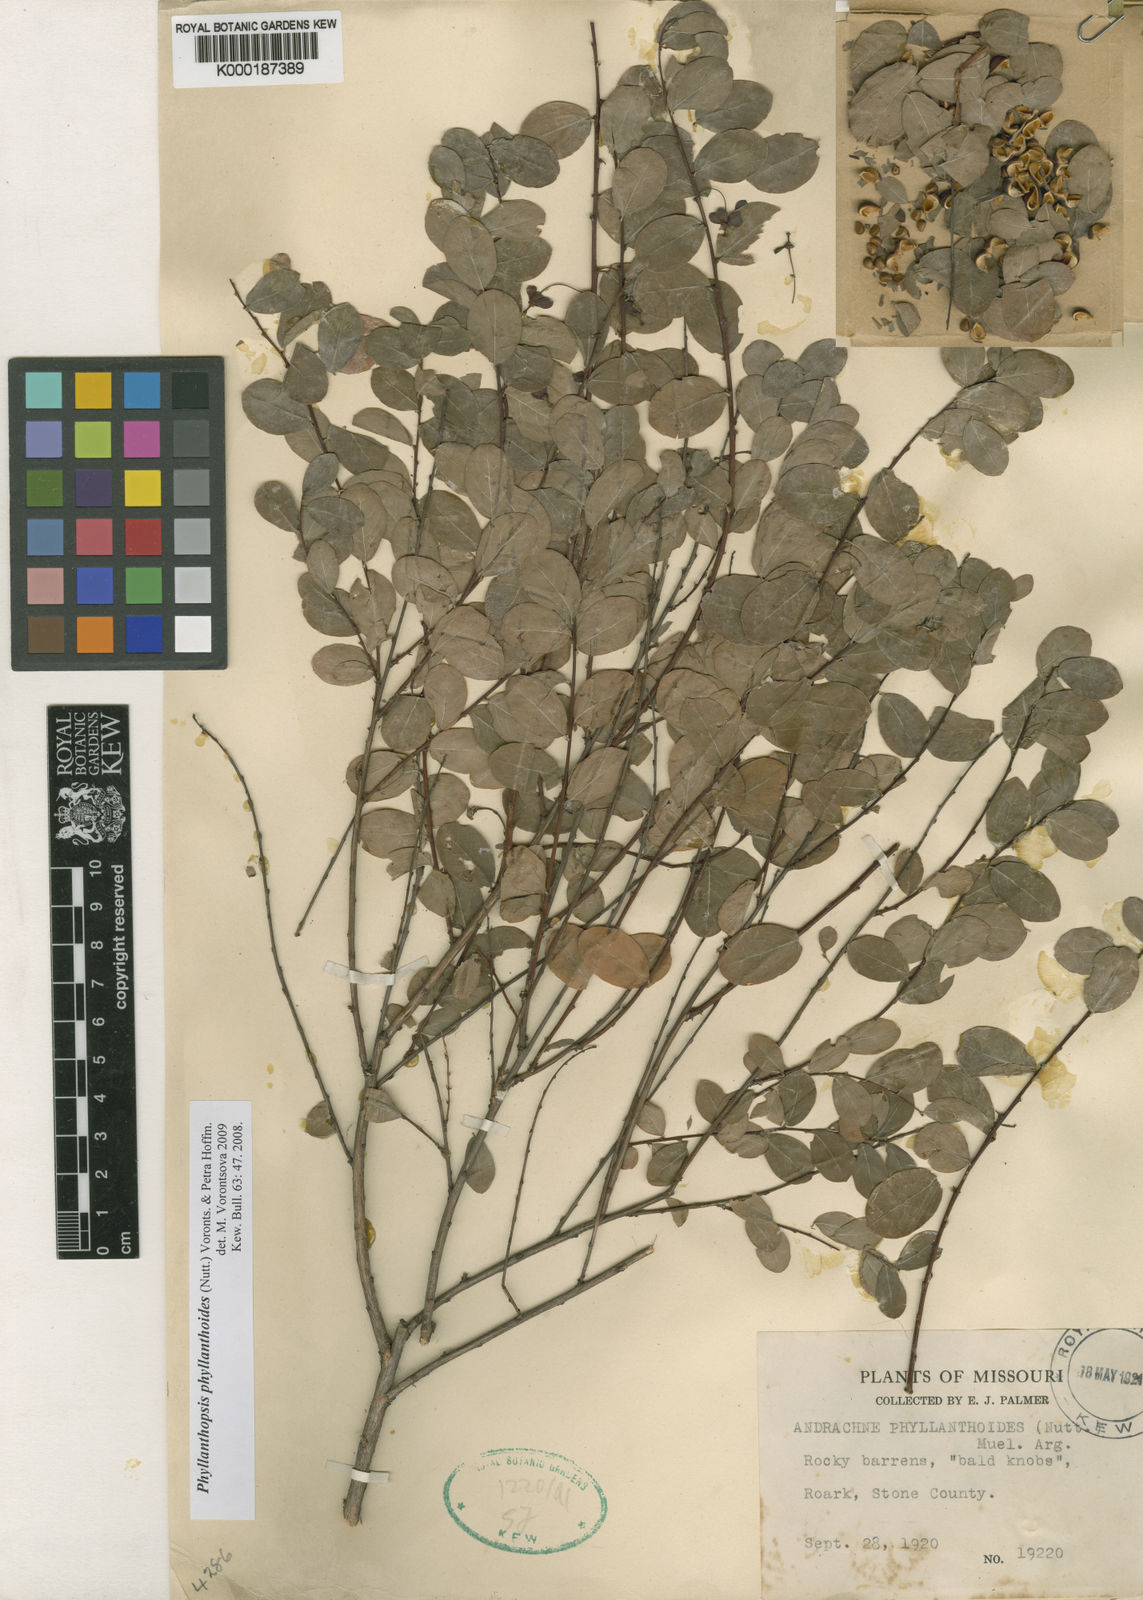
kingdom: Plantae
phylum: Tracheophyta
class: Magnoliopsida
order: Malpighiales
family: Phyllanthaceae
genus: Andrachne
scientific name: Andrachne
